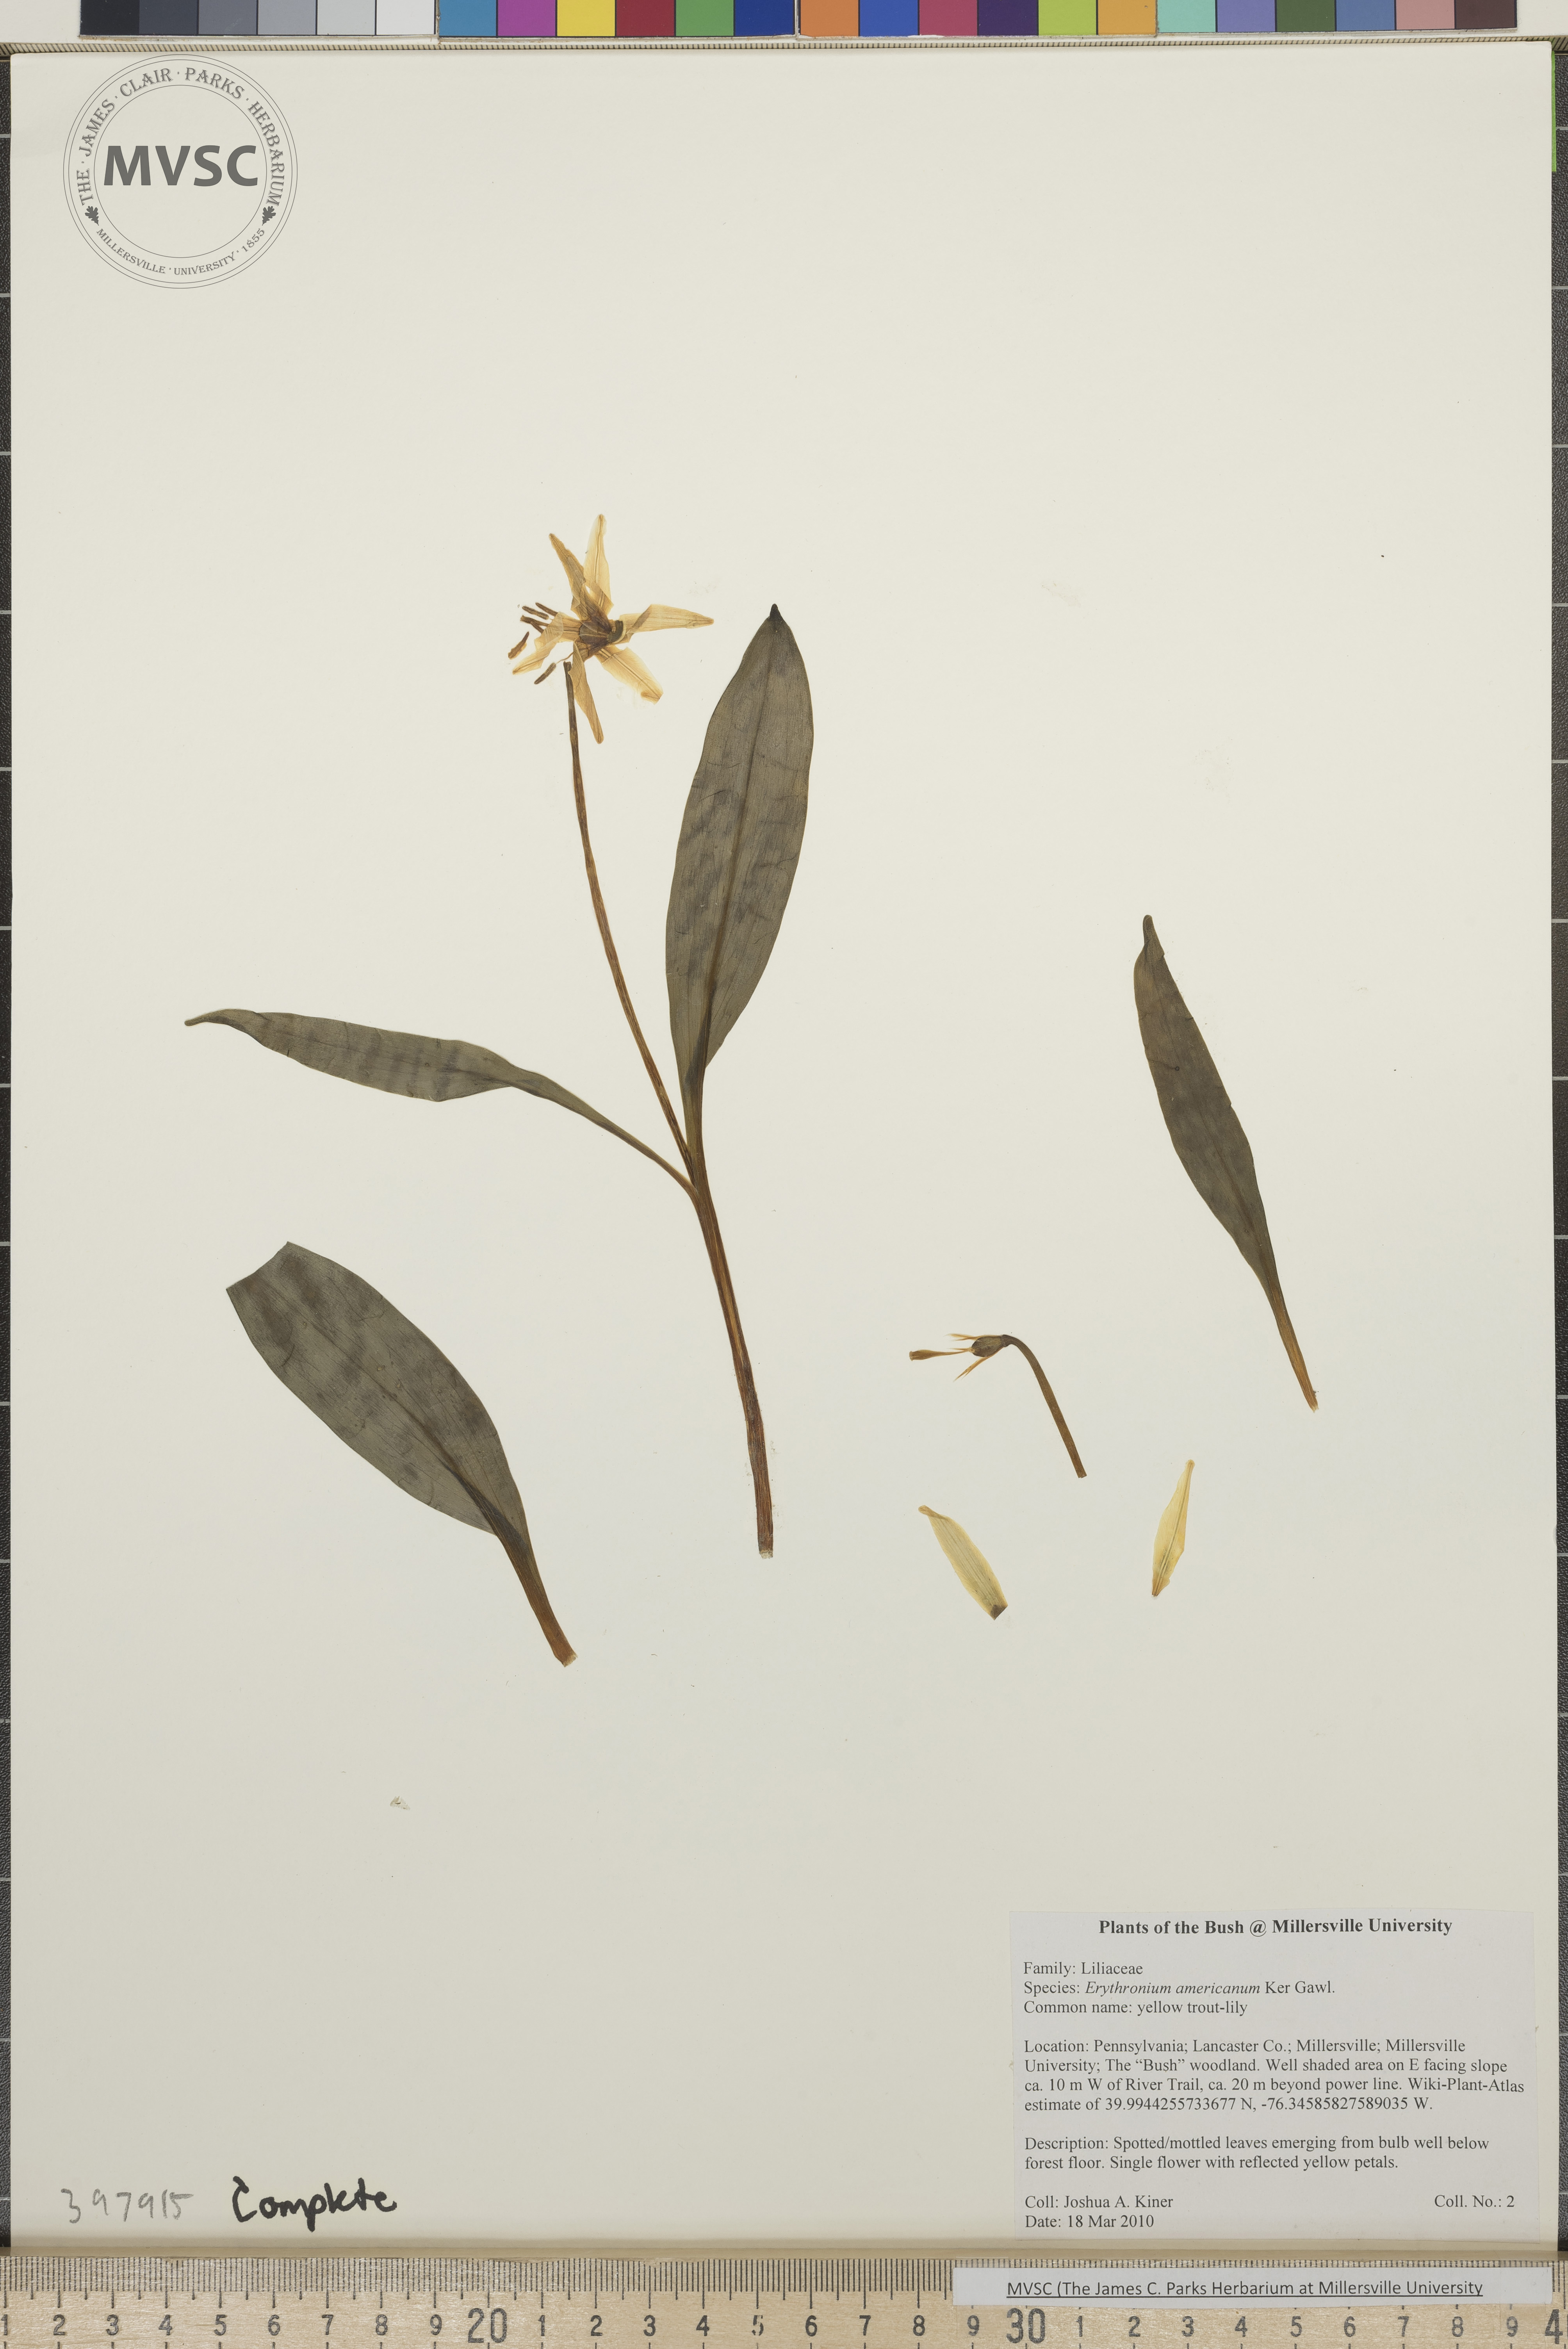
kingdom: Plantae
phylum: Tracheophyta
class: Liliopsida
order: Liliales
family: Liliaceae
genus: Erythronium
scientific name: Erythronium americanum
